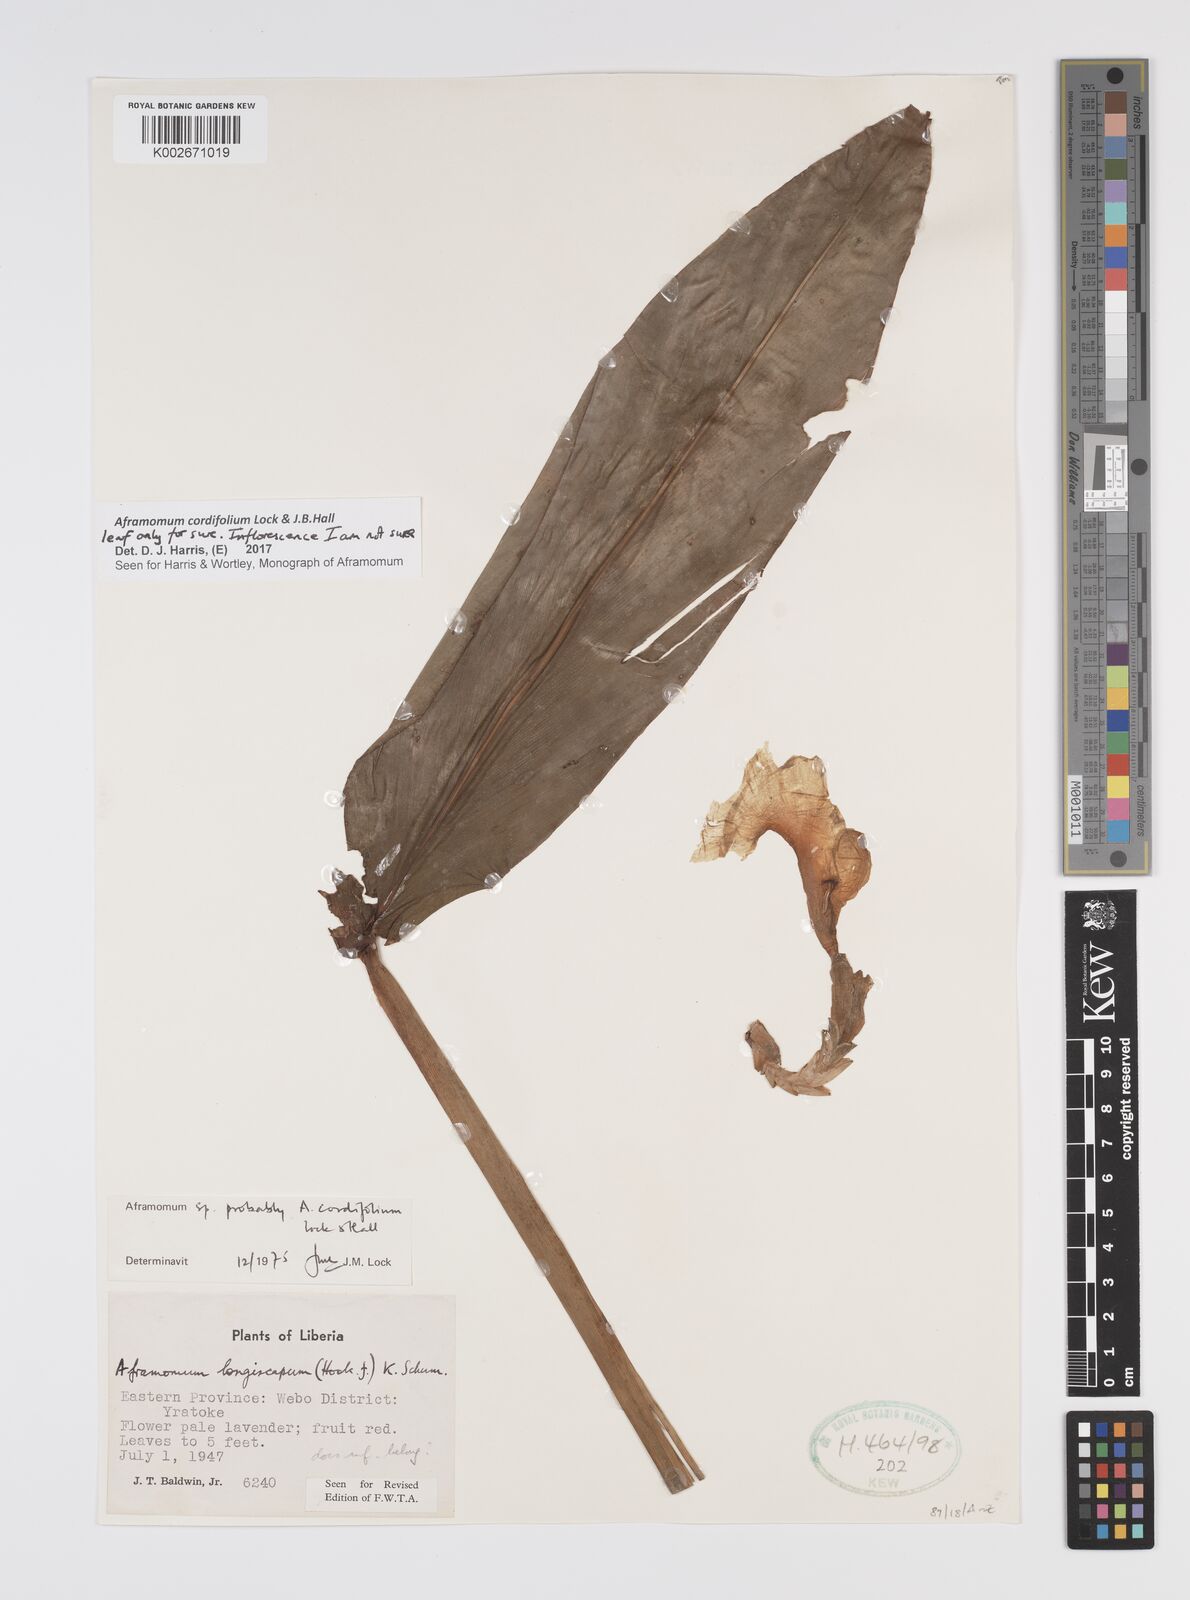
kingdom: Plantae
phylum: Tracheophyta
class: Liliopsida
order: Zingiberales
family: Zingiberaceae
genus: Aframomum
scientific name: Aframomum cordifolium
